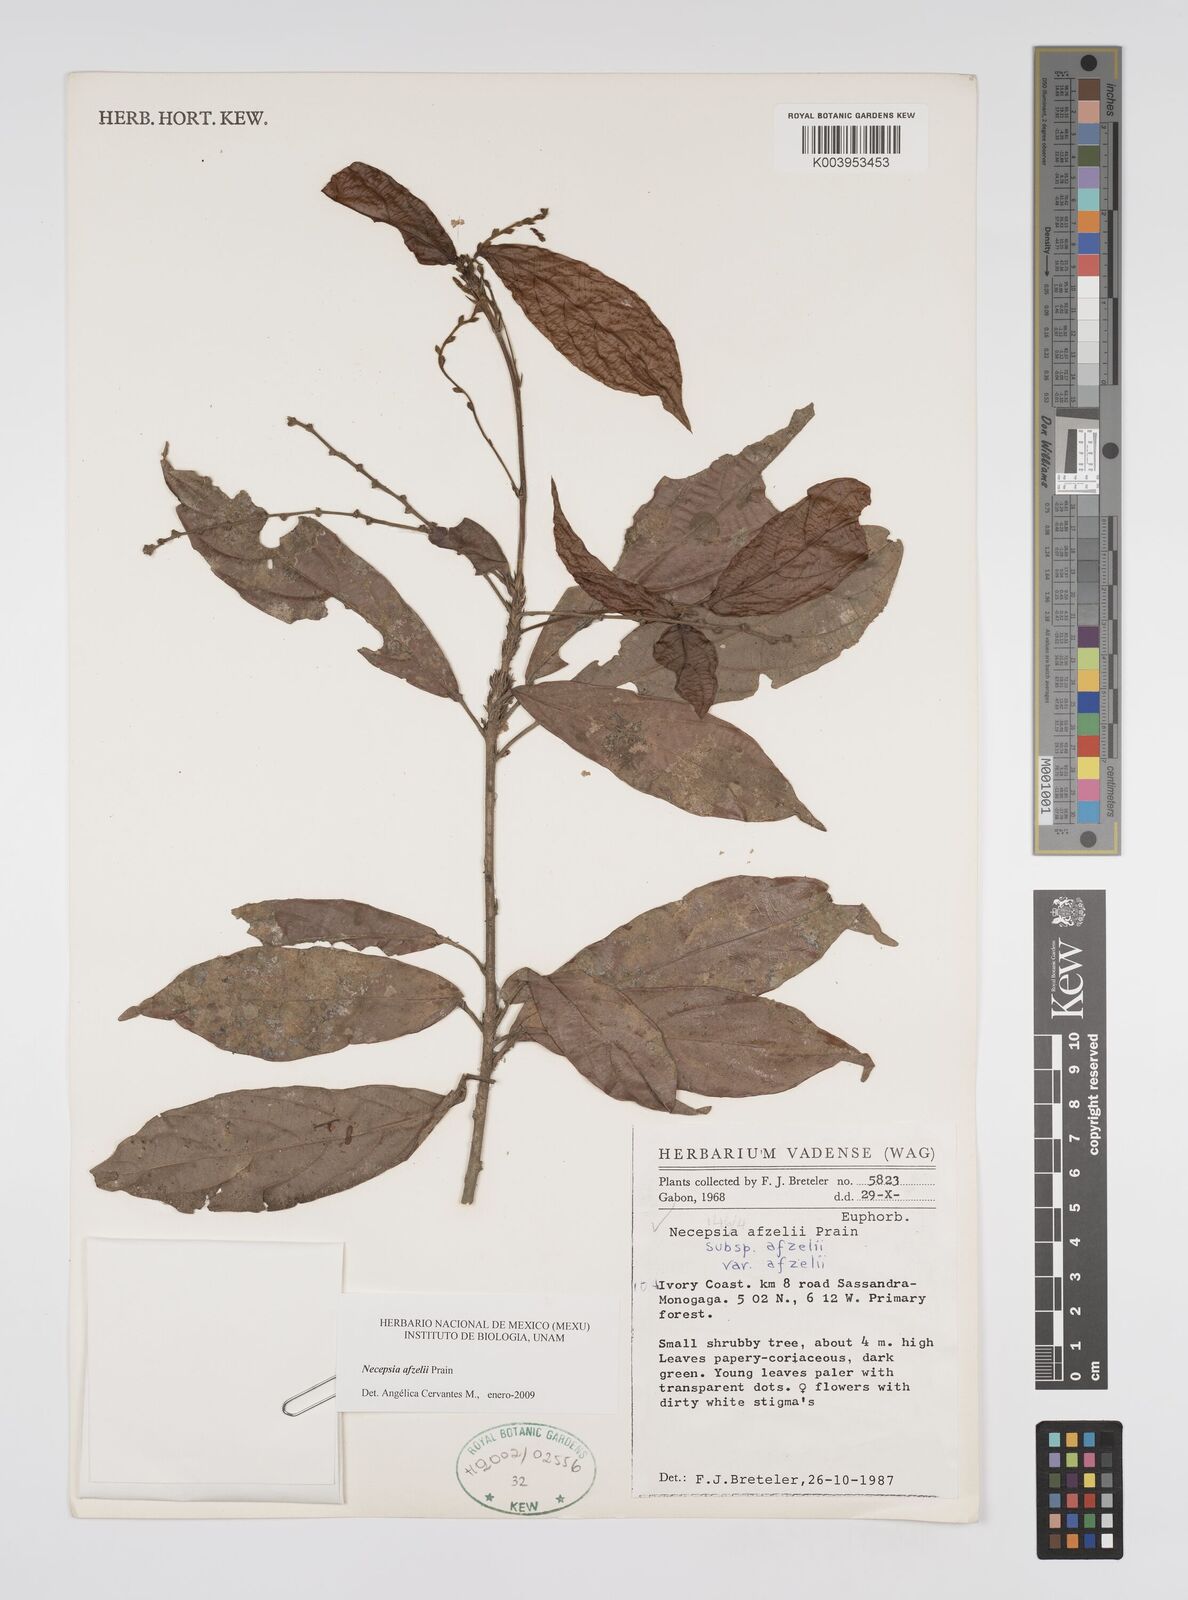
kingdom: Plantae
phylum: Tracheophyta
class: Magnoliopsida
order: Malpighiales
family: Euphorbiaceae
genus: Necepsia
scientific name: Necepsia afzelii
